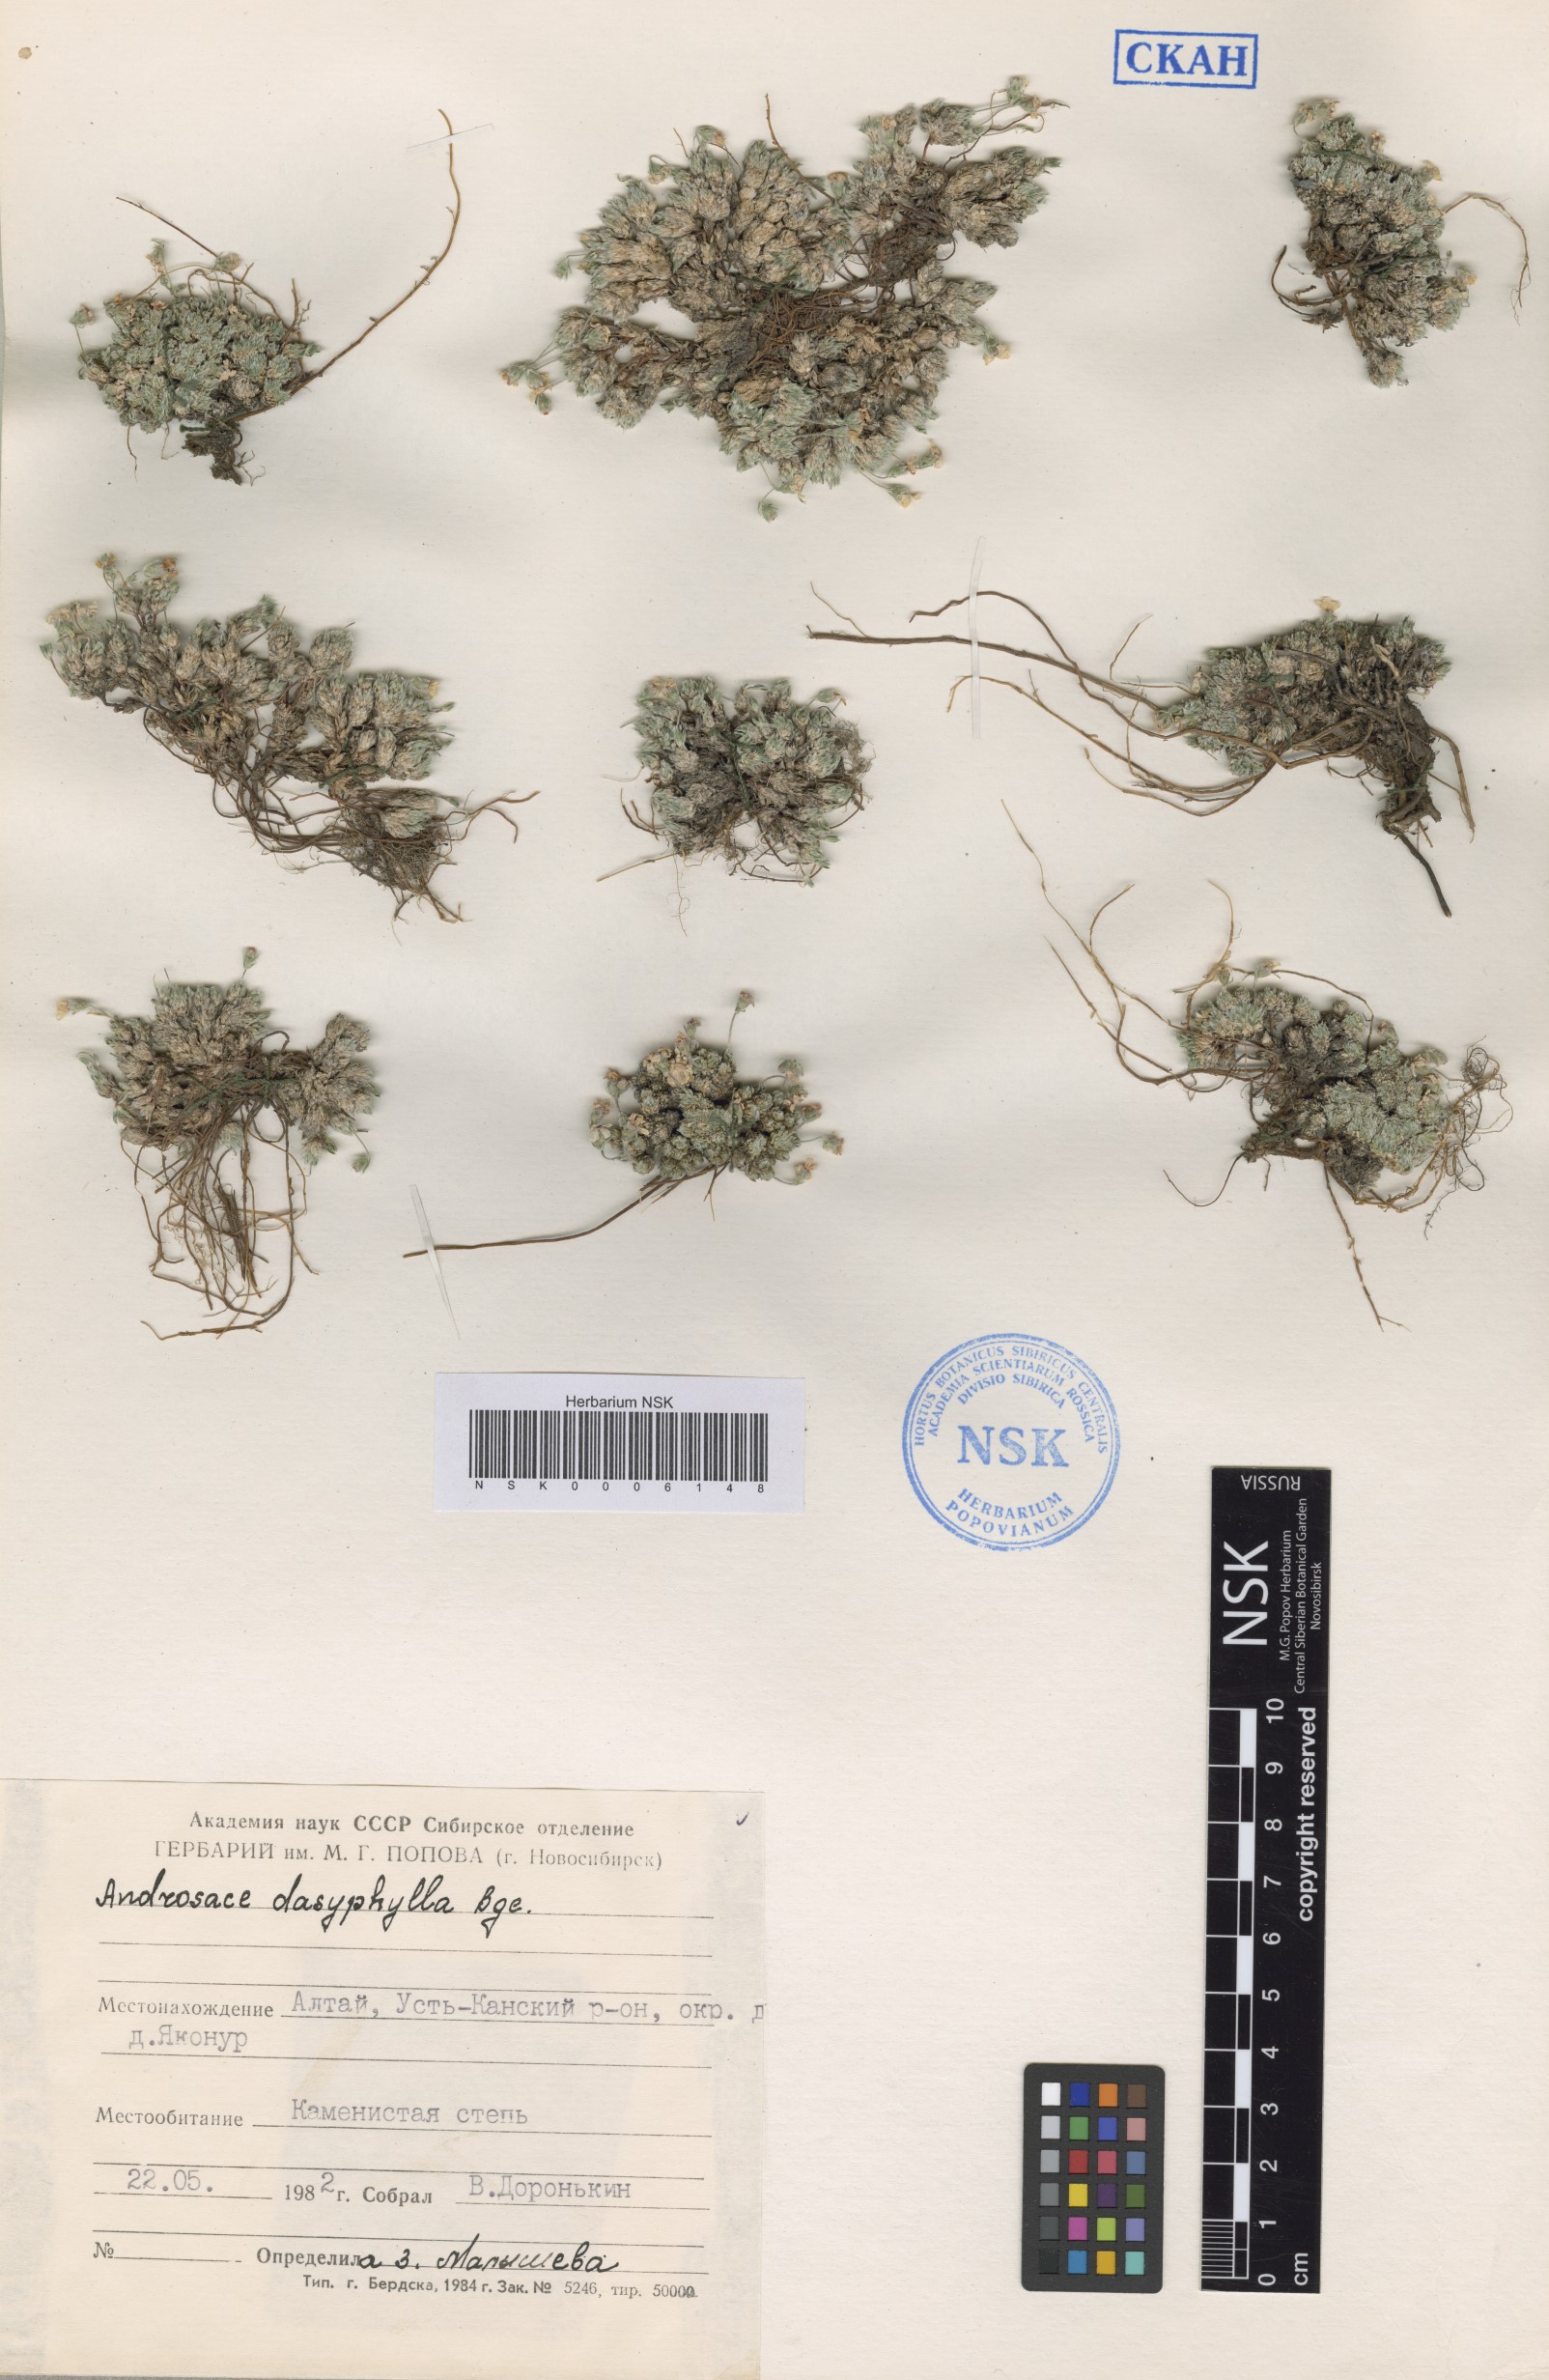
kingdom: Plantae
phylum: Tracheophyta
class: Magnoliopsida
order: Ericales
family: Primulaceae
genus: Androsace
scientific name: Androsace dasyphylla
